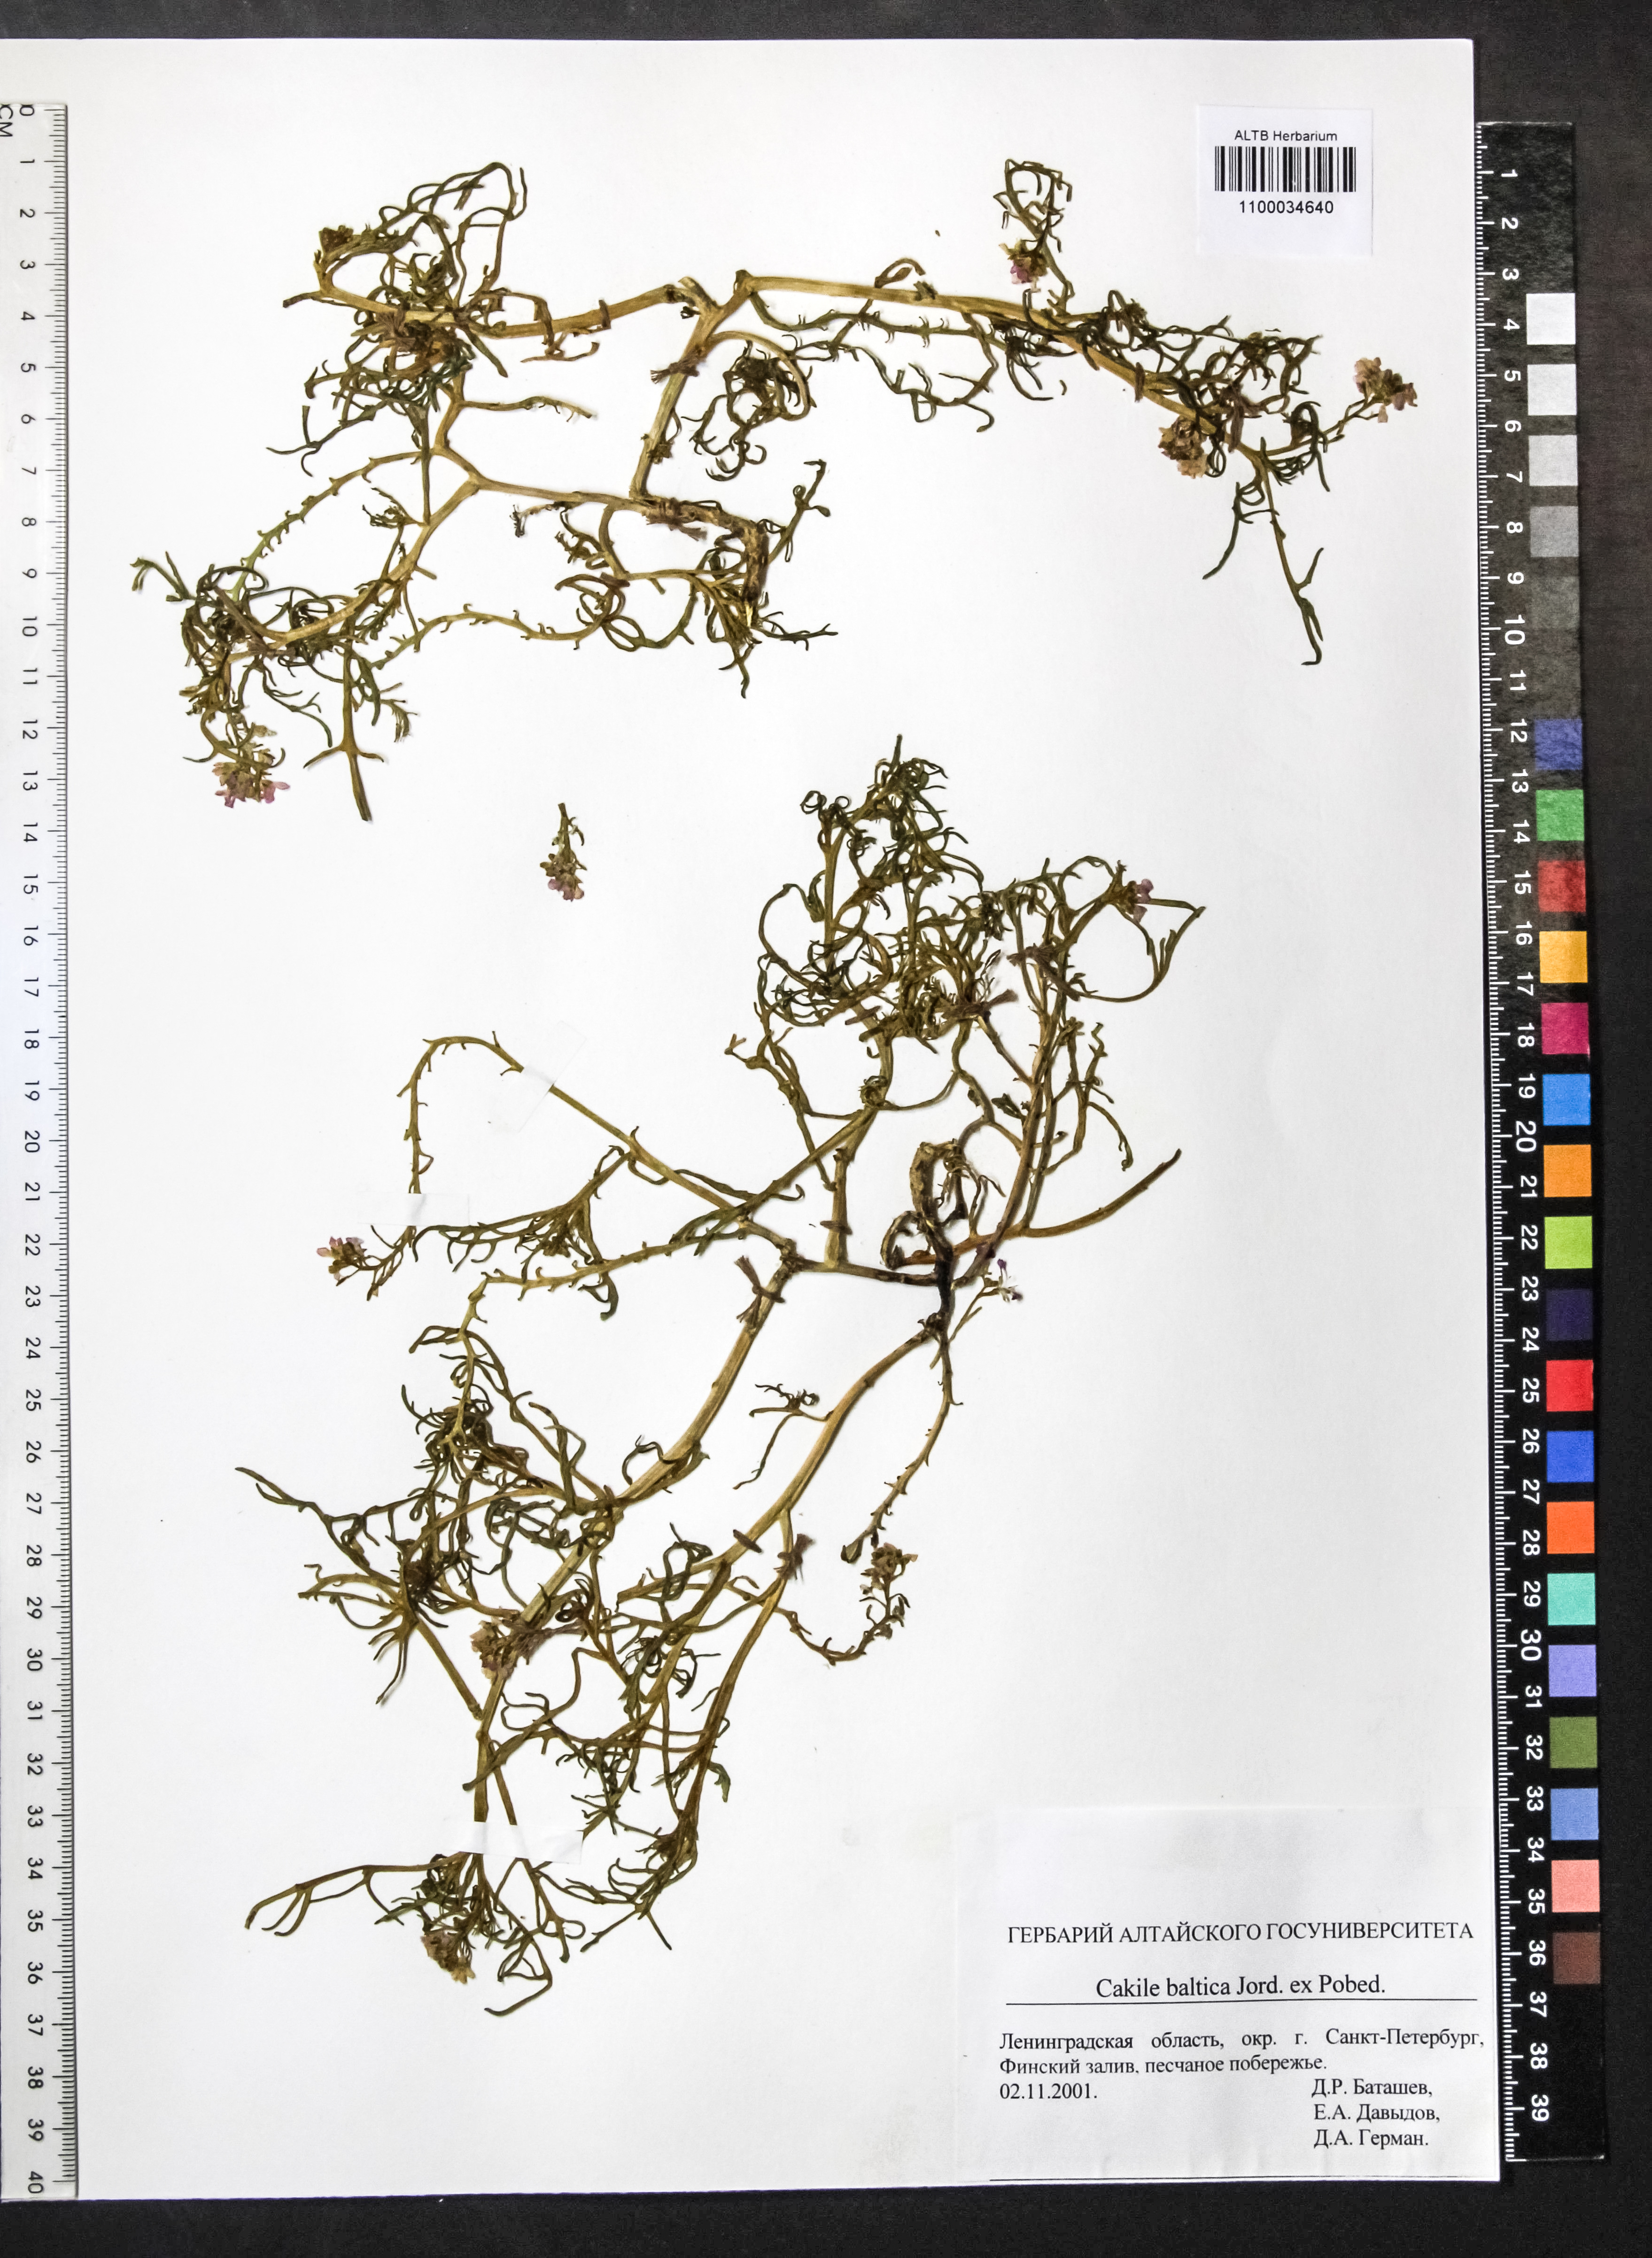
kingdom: Plantae
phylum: Tracheophyta
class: Magnoliopsida
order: Brassicales
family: Brassicaceae
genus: Cakile
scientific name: Cakile maritima
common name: Sea rocket
